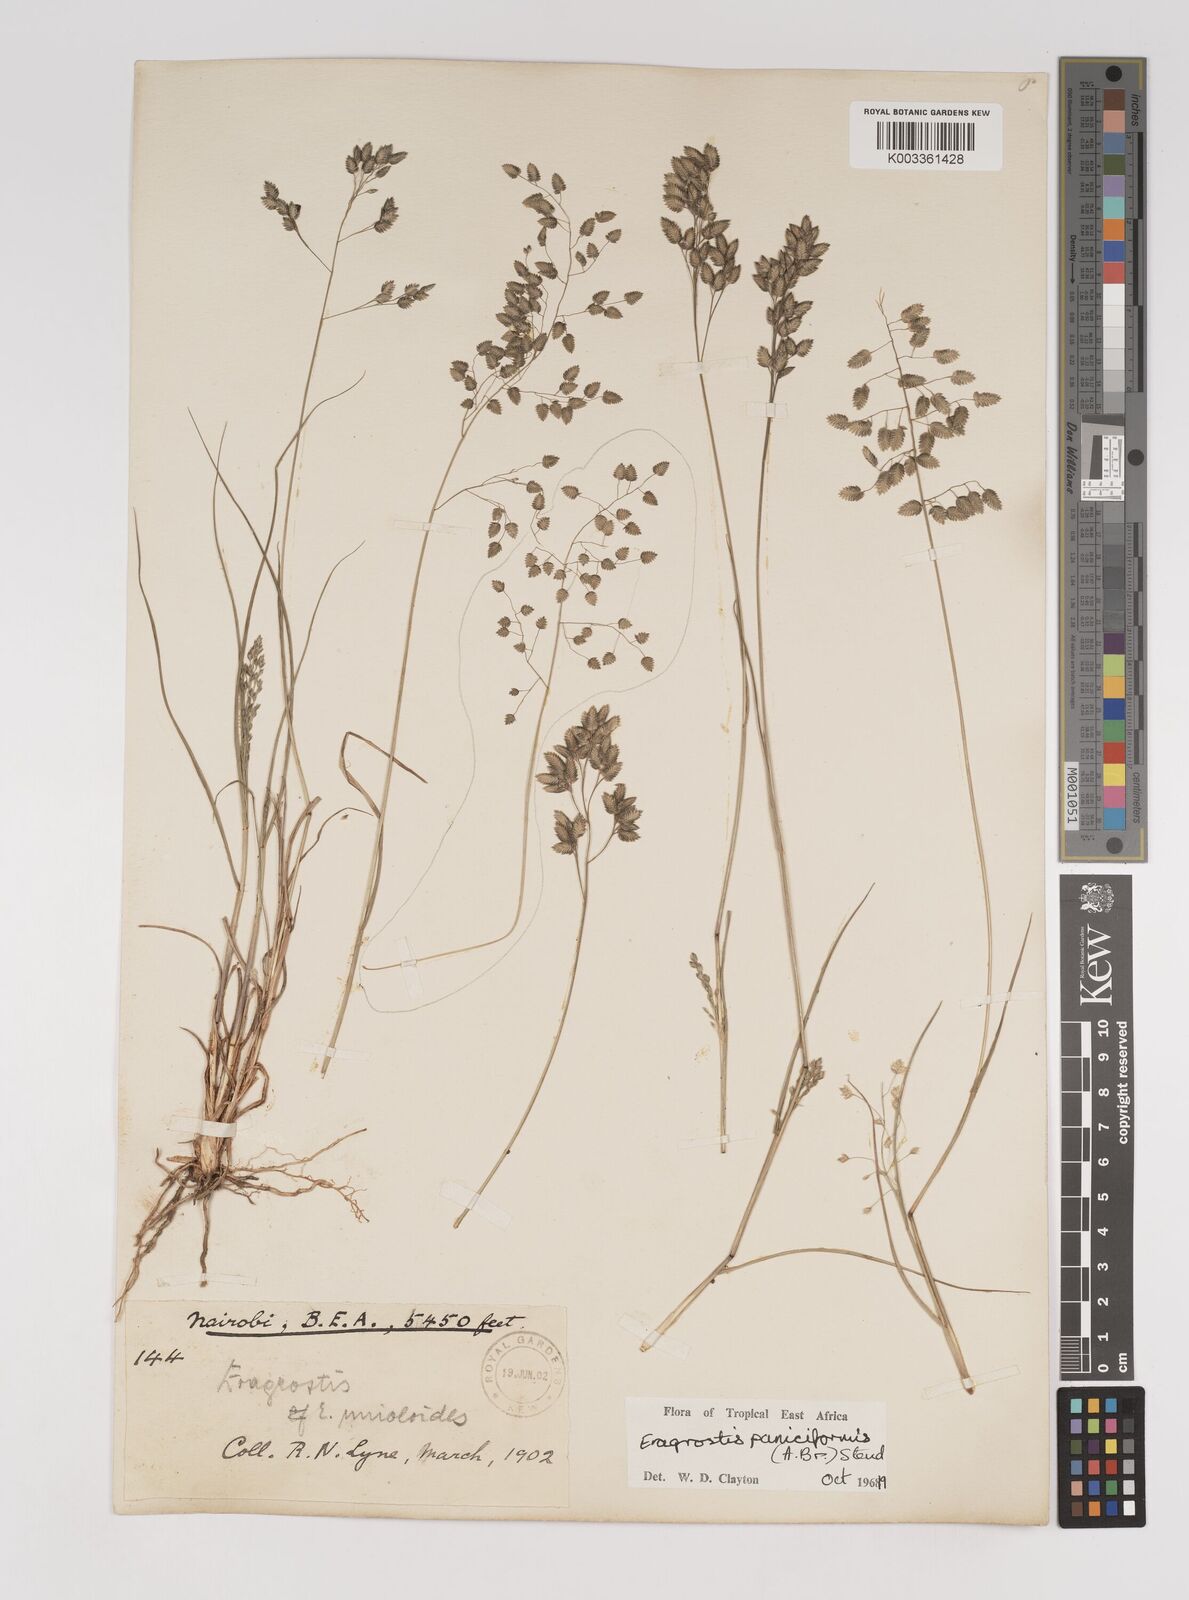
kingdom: Plantae
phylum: Tracheophyta
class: Liliopsida
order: Poales
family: Poaceae
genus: Eragrostis
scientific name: Eragrostis paniciformis
